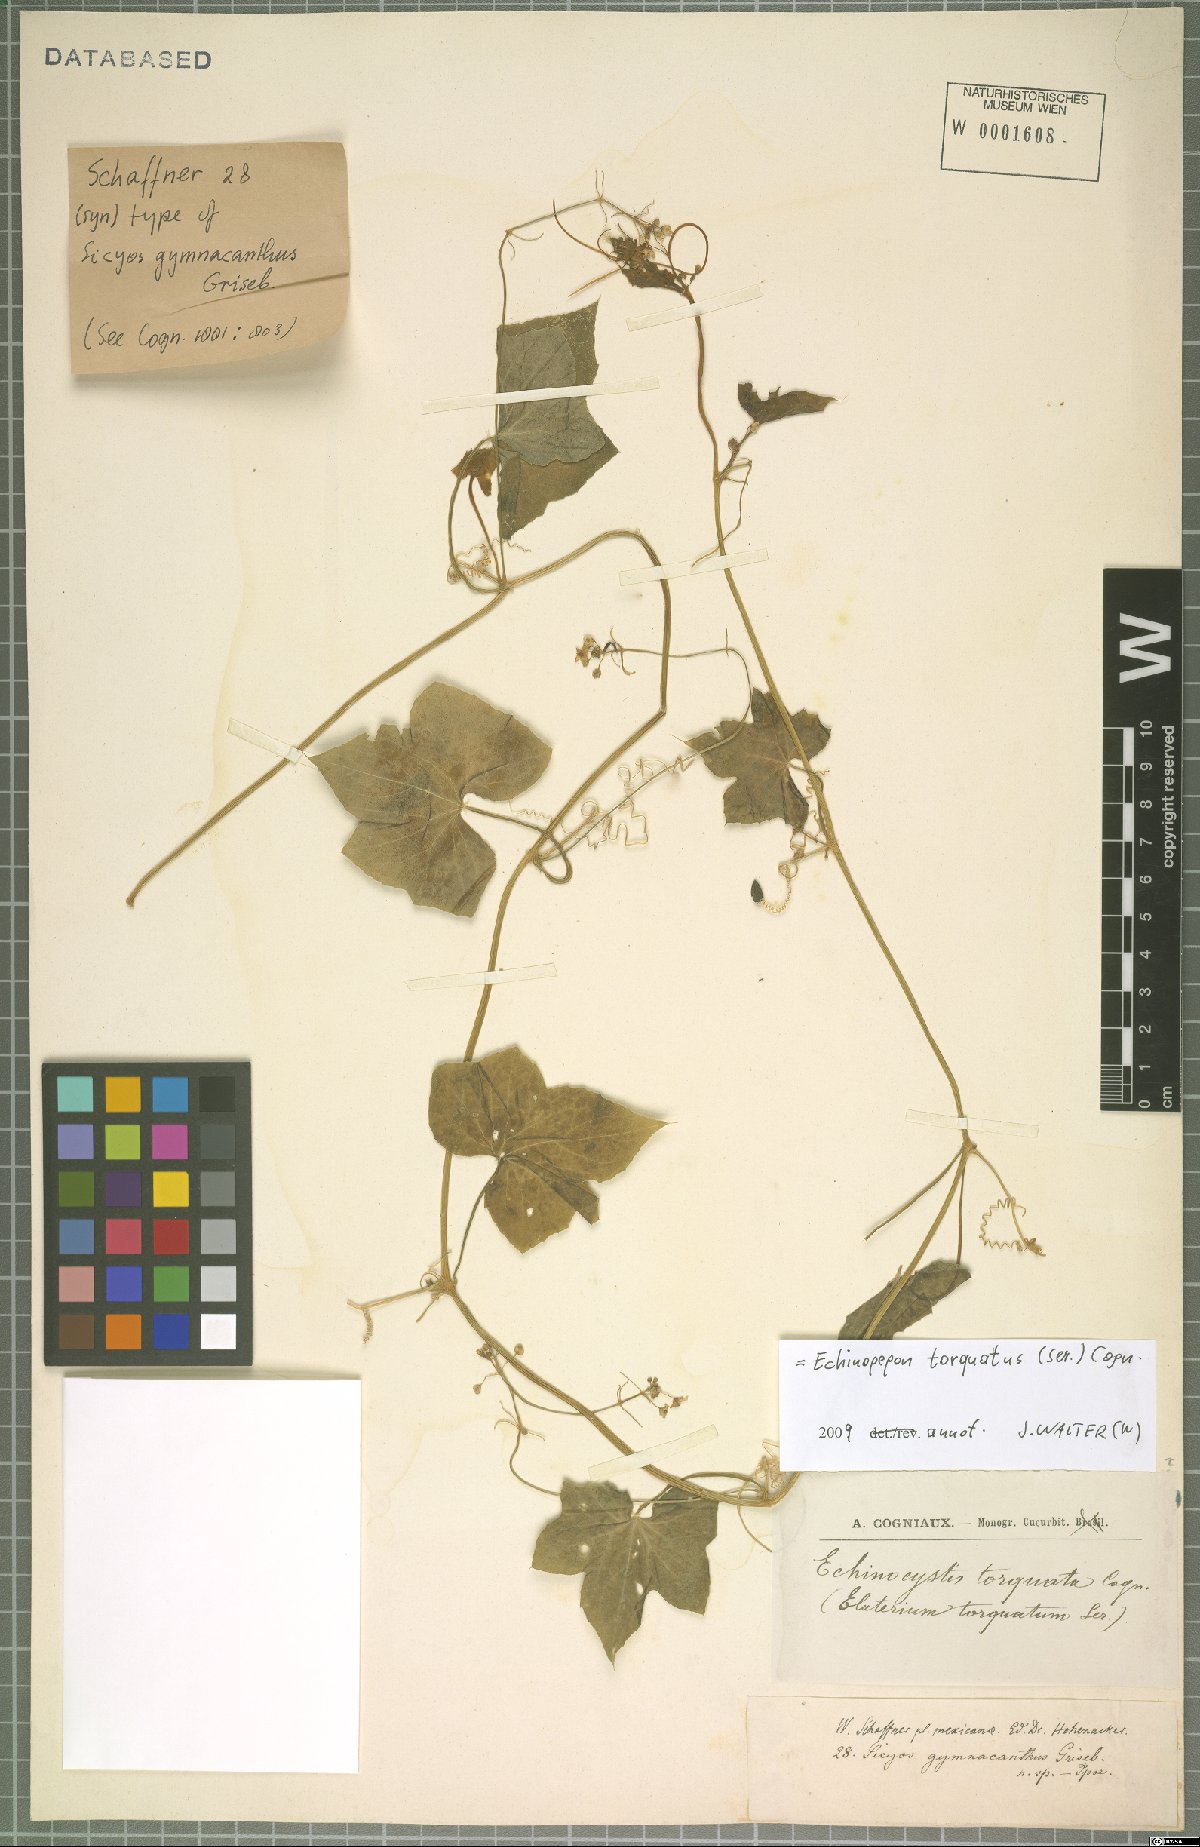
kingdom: Plantae
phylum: Tracheophyta
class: Magnoliopsida
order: Cucurbitales
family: Cucurbitaceae
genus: Echinopepon
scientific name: Echinopepon torquatus
